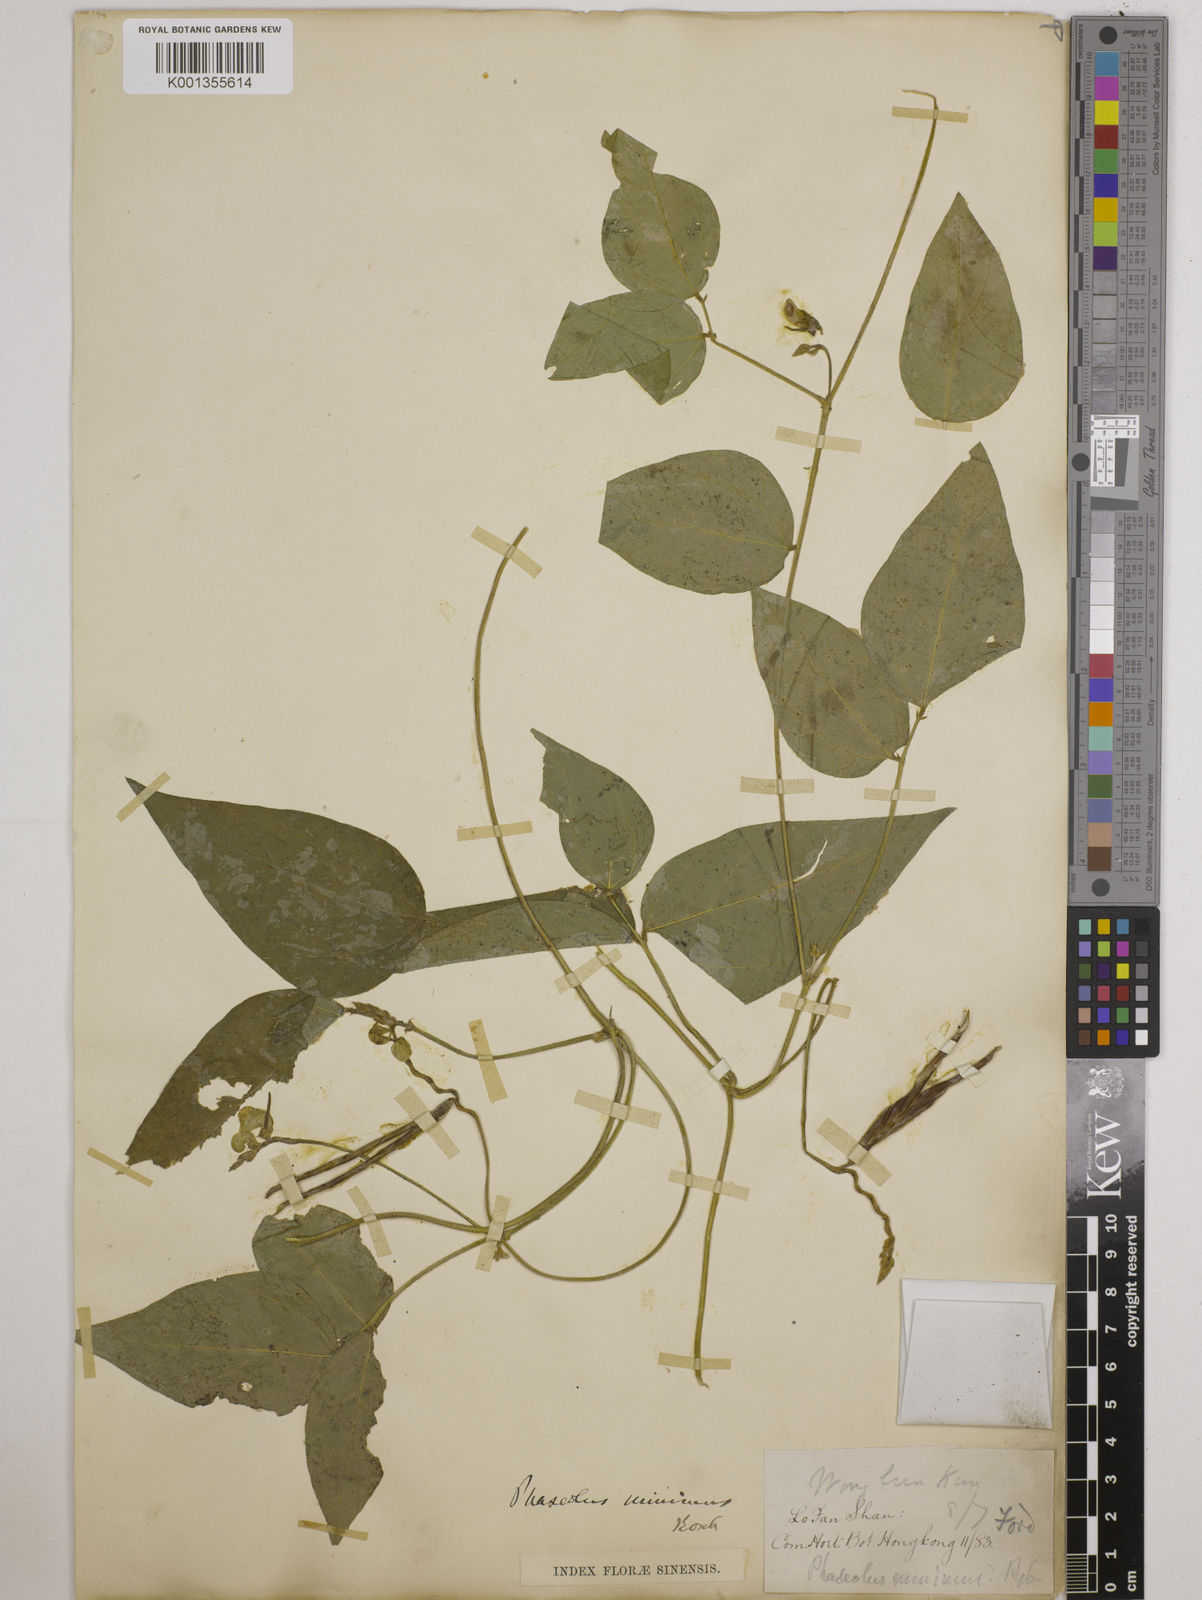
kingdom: Plantae
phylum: Tracheophyta
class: Magnoliopsida
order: Fabales
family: Fabaceae
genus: Vigna
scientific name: Vigna minima
